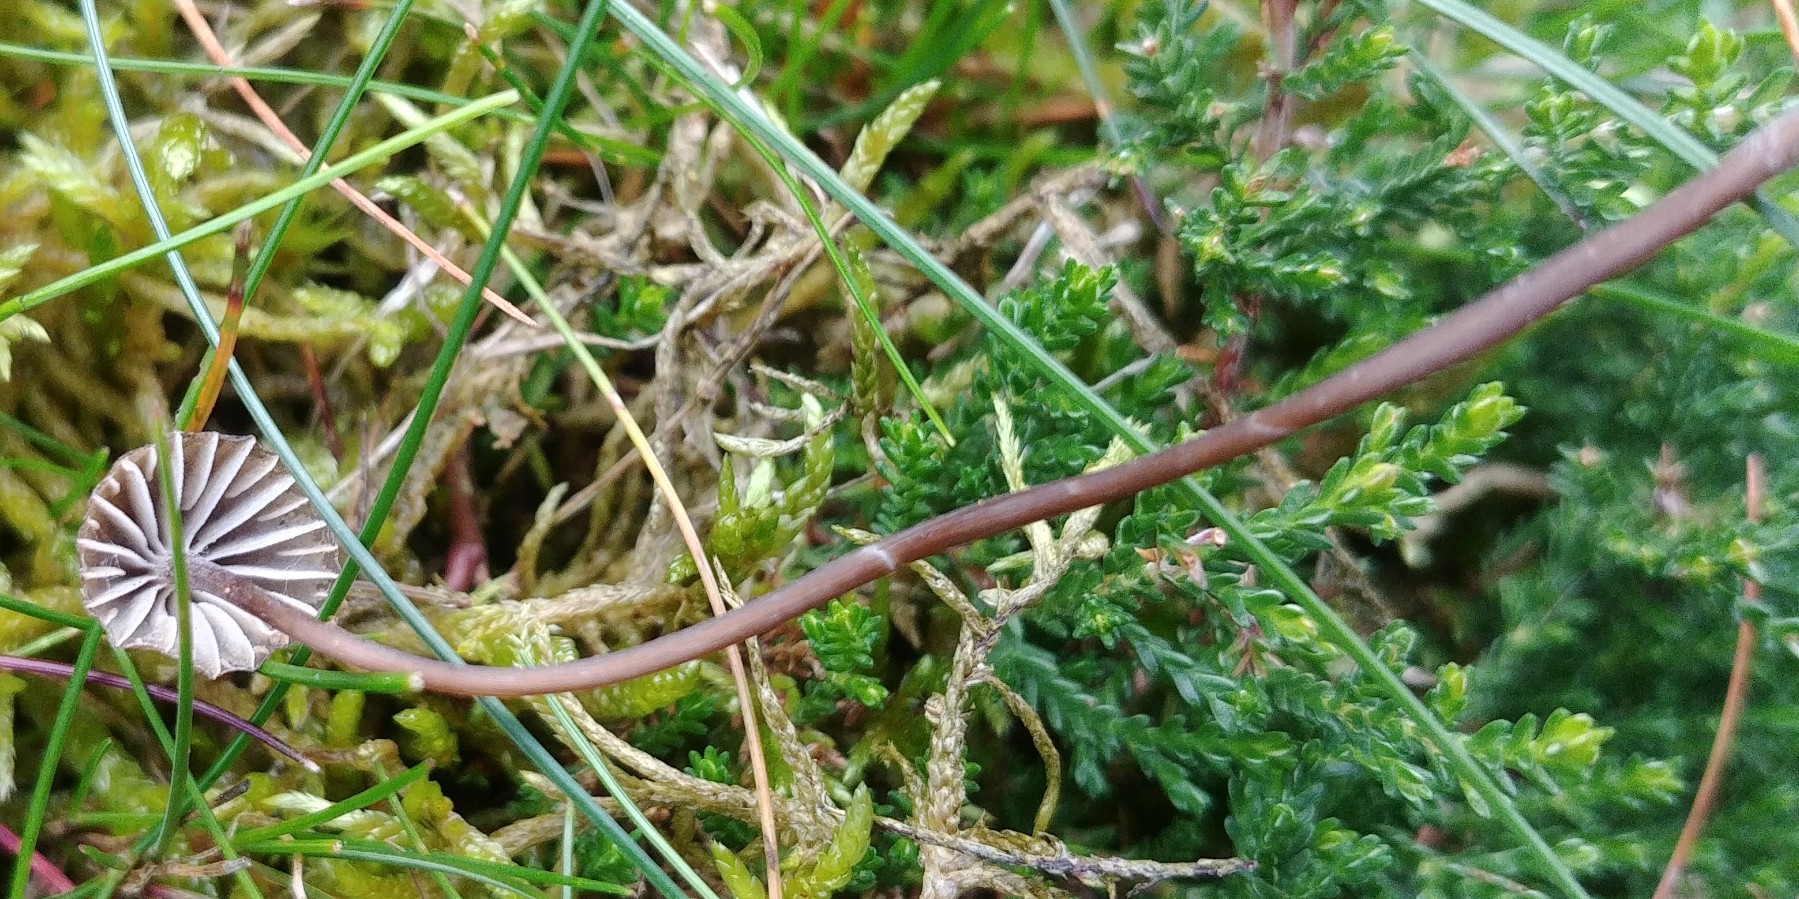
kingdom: Fungi
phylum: Basidiomycota
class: Agaricomycetes
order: Agaricales
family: Mycenaceae
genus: Mycena
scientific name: Mycena
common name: huesvamp
